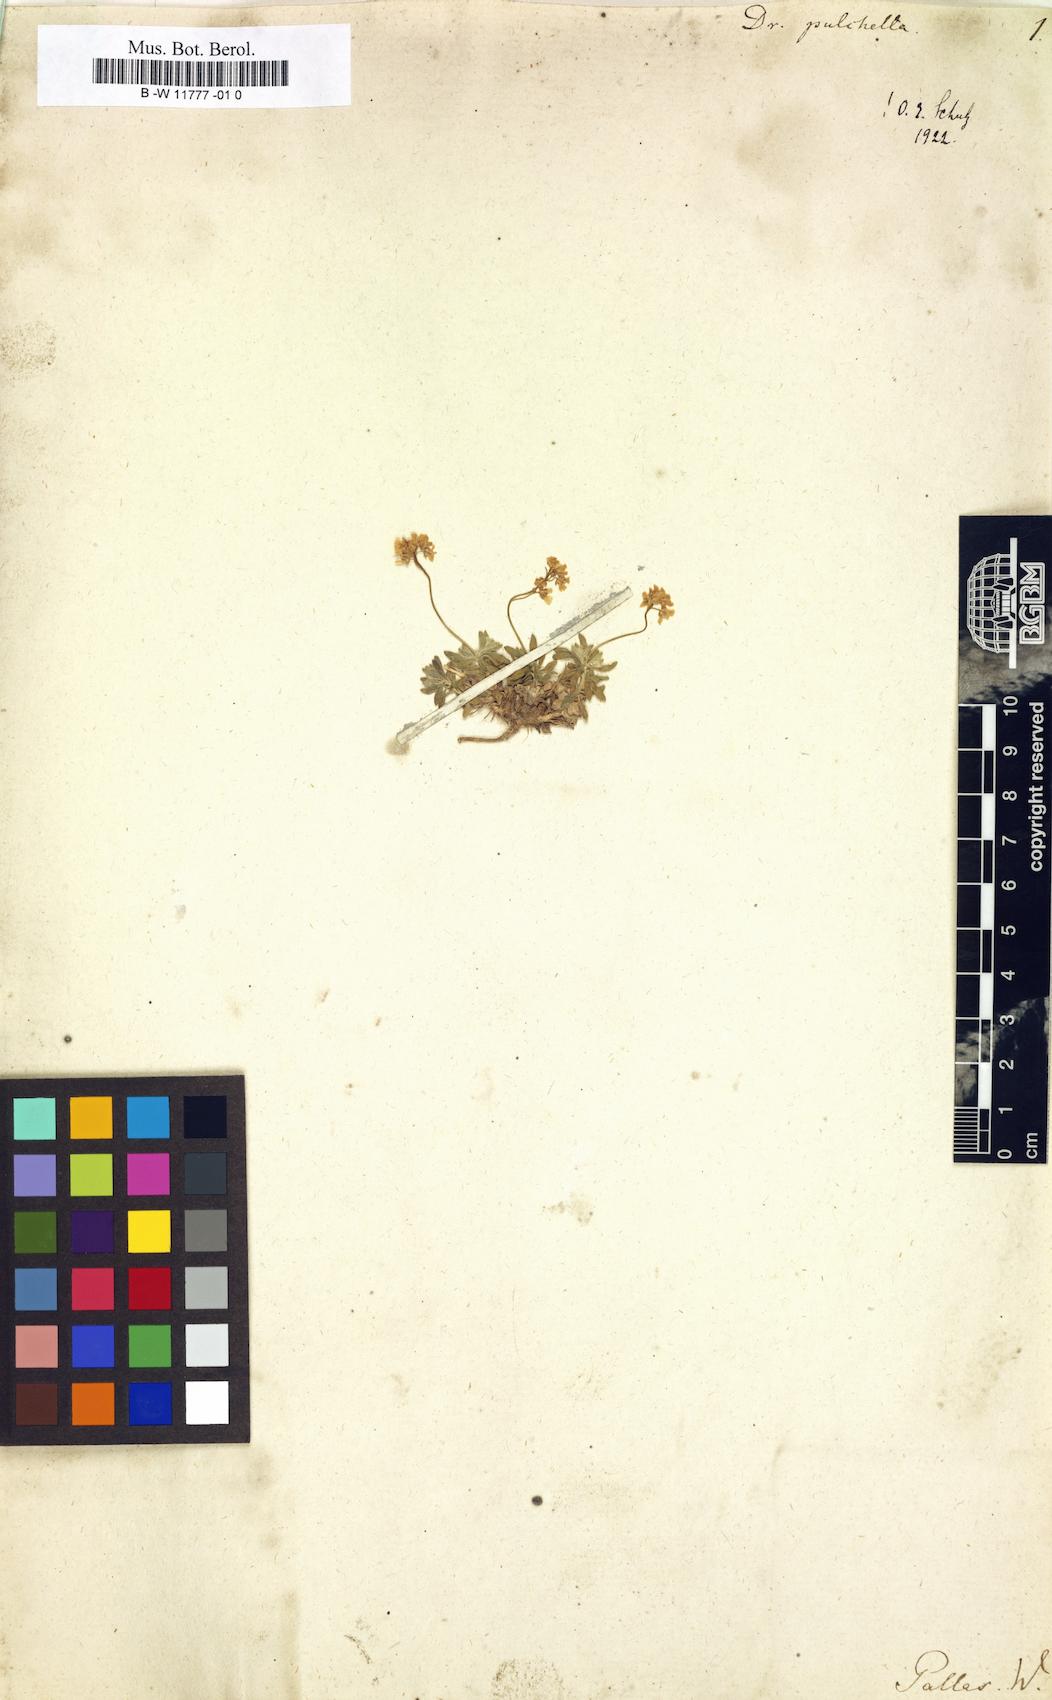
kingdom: Plantae
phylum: Tracheophyta
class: Magnoliopsida
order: Brassicales
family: Brassicaceae
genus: Draba
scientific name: Draba pulchella
